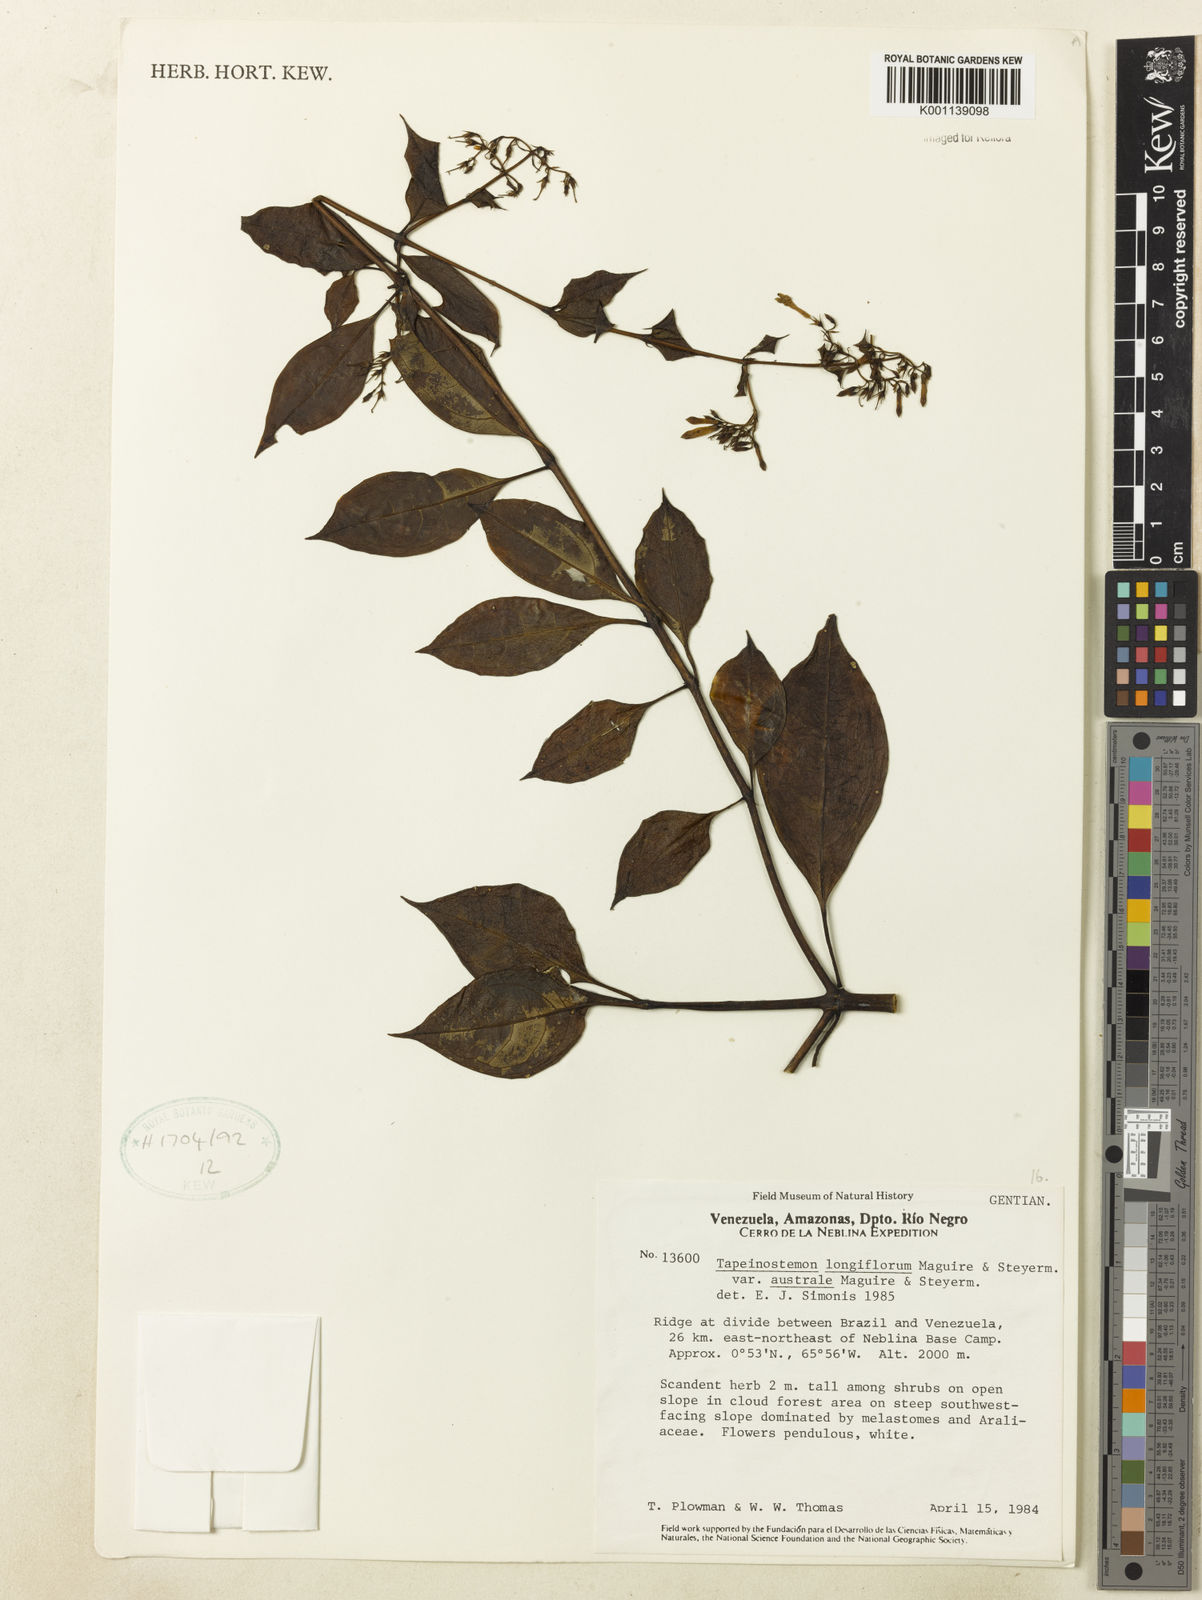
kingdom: Plantae
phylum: Tracheophyta
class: Magnoliopsida
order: Gentianales
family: Gentianaceae
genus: Tapeinostemon
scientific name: Tapeinostemon longiflorus
